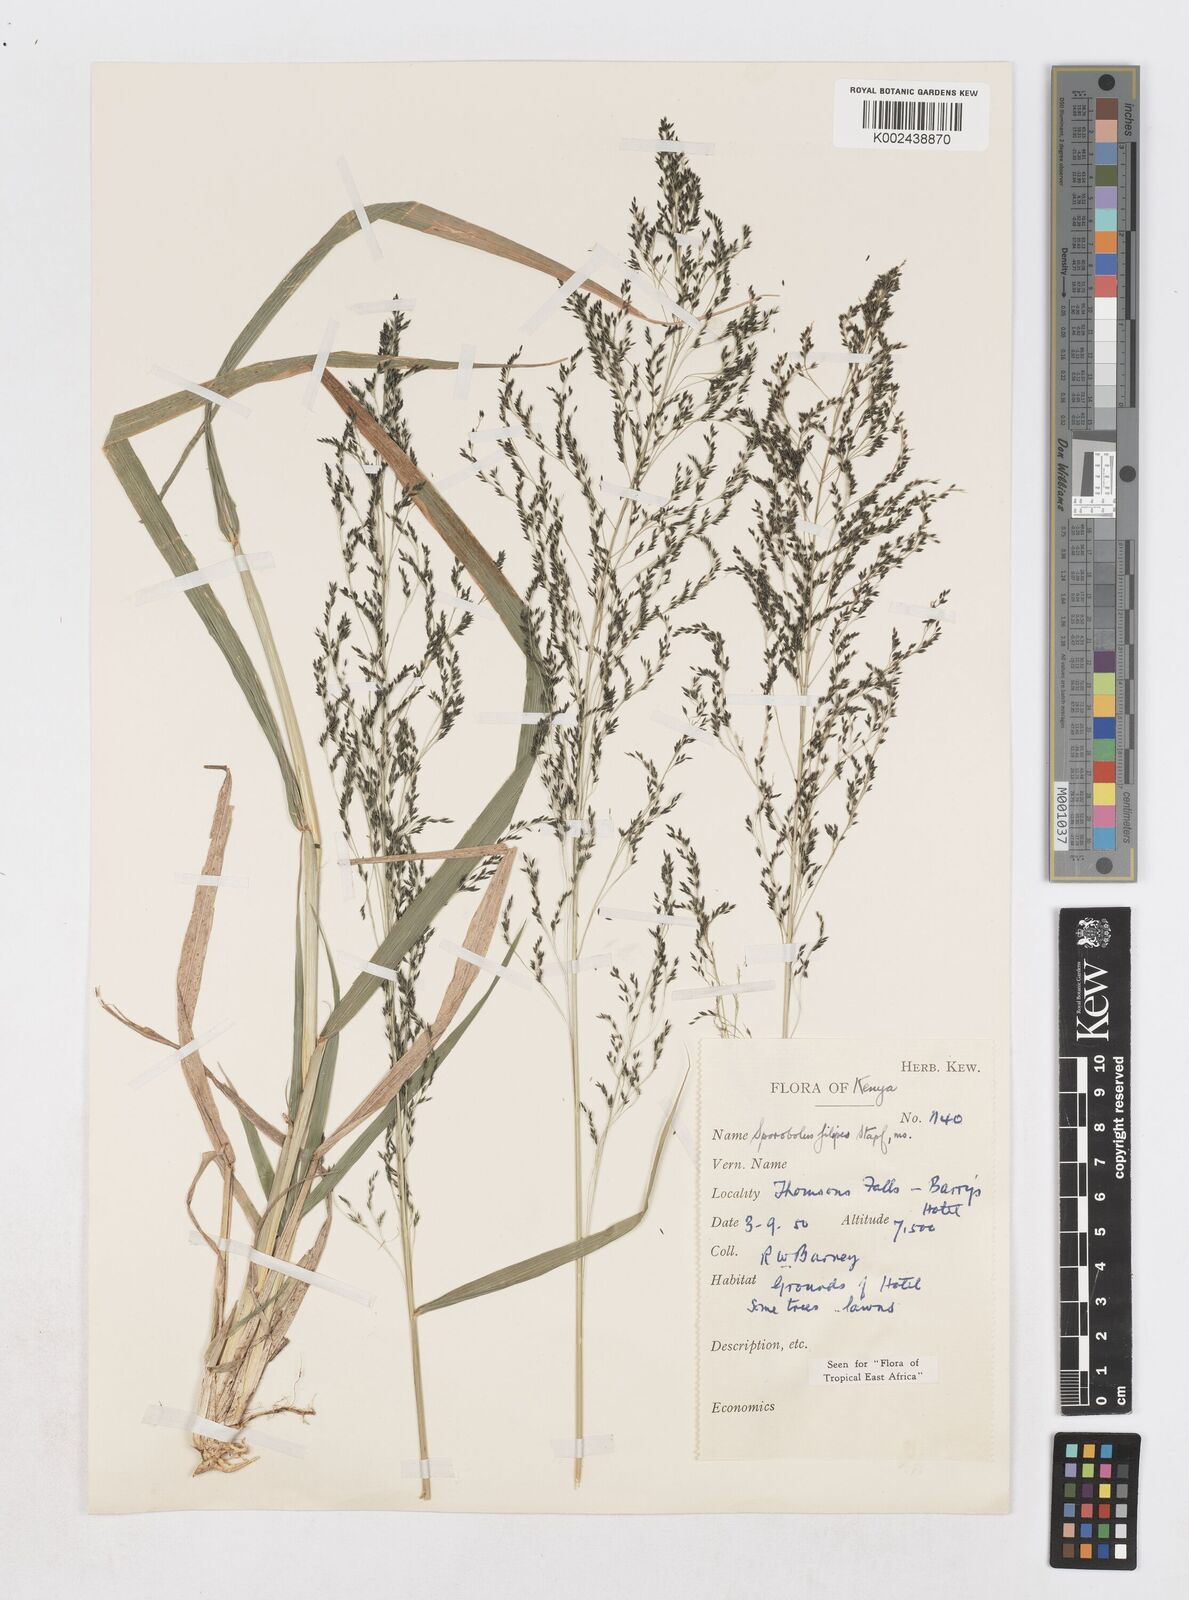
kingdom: Plantae
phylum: Tracheophyta
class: Liliopsida
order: Poales
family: Poaceae
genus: Sporobolus
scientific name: Sporobolus agrostoides
